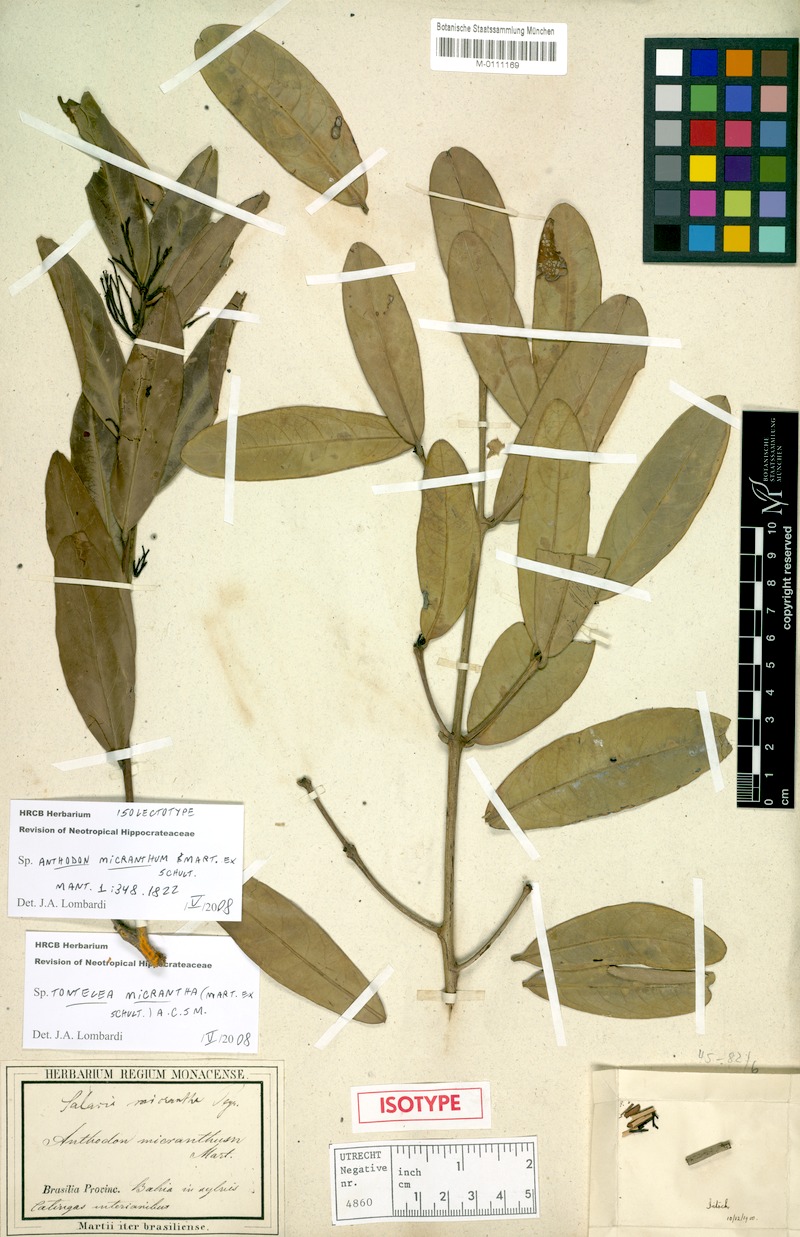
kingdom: Plantae
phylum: Tracheophyta
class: Magnoliopsida
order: Celastrales
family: Celastraceae
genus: Tontelea
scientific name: Tontelea micrantha
